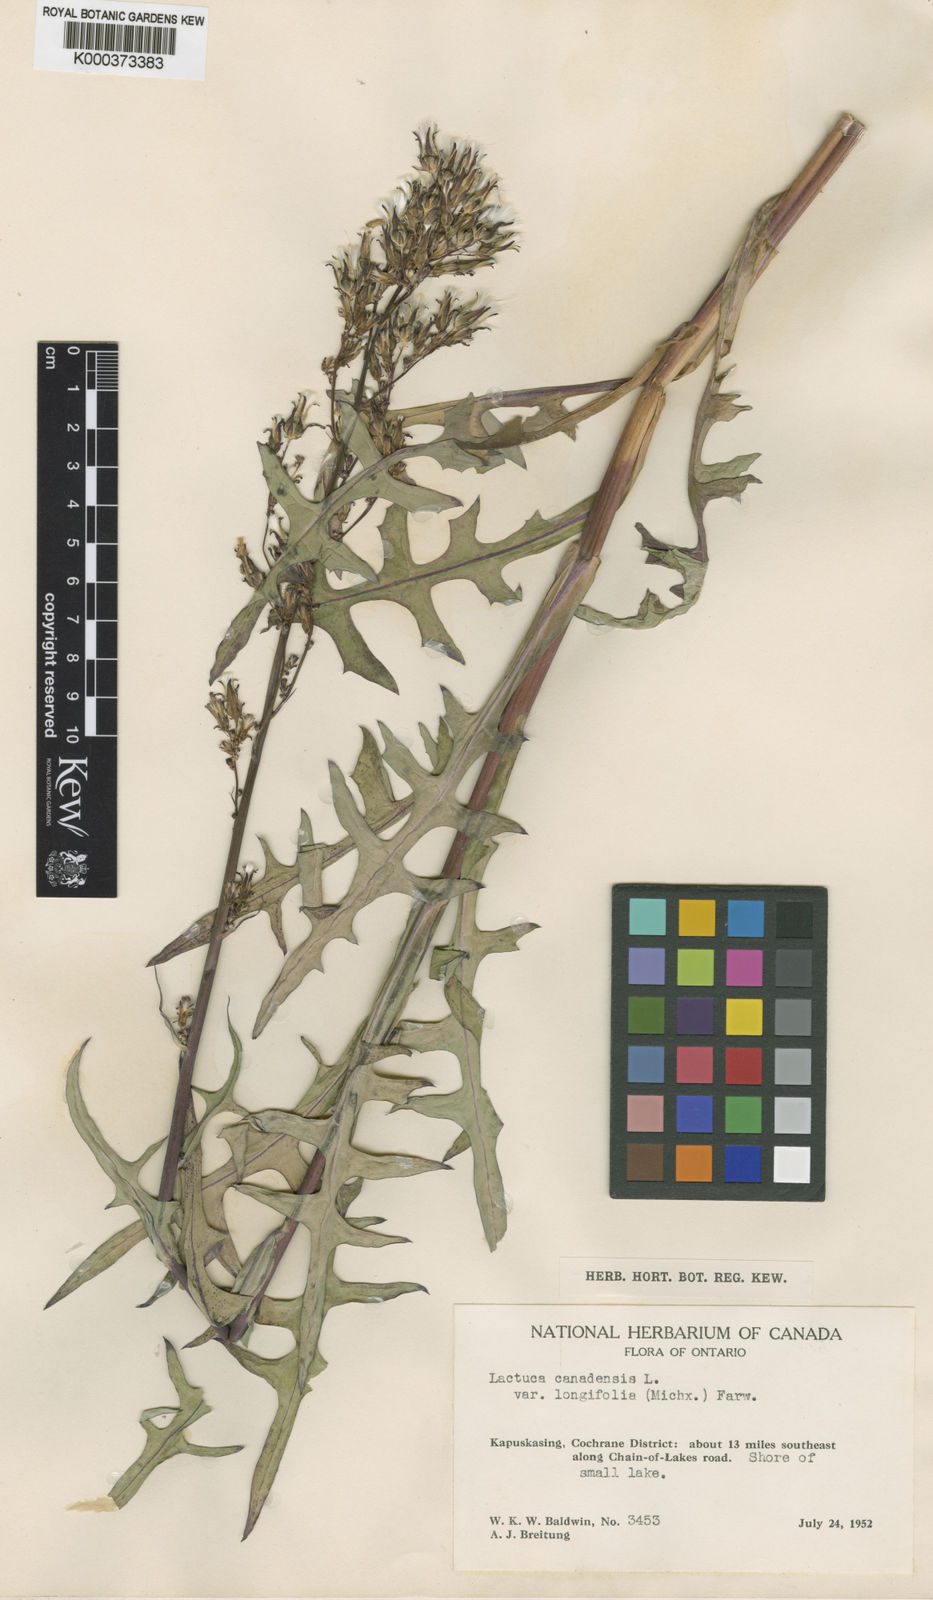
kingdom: Plantae
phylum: Tracheophyta
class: Magnoliopsida
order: Asterales
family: Asteraceae
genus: Lactuca
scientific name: Lactuca hirsuta
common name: Hairy lettuce
